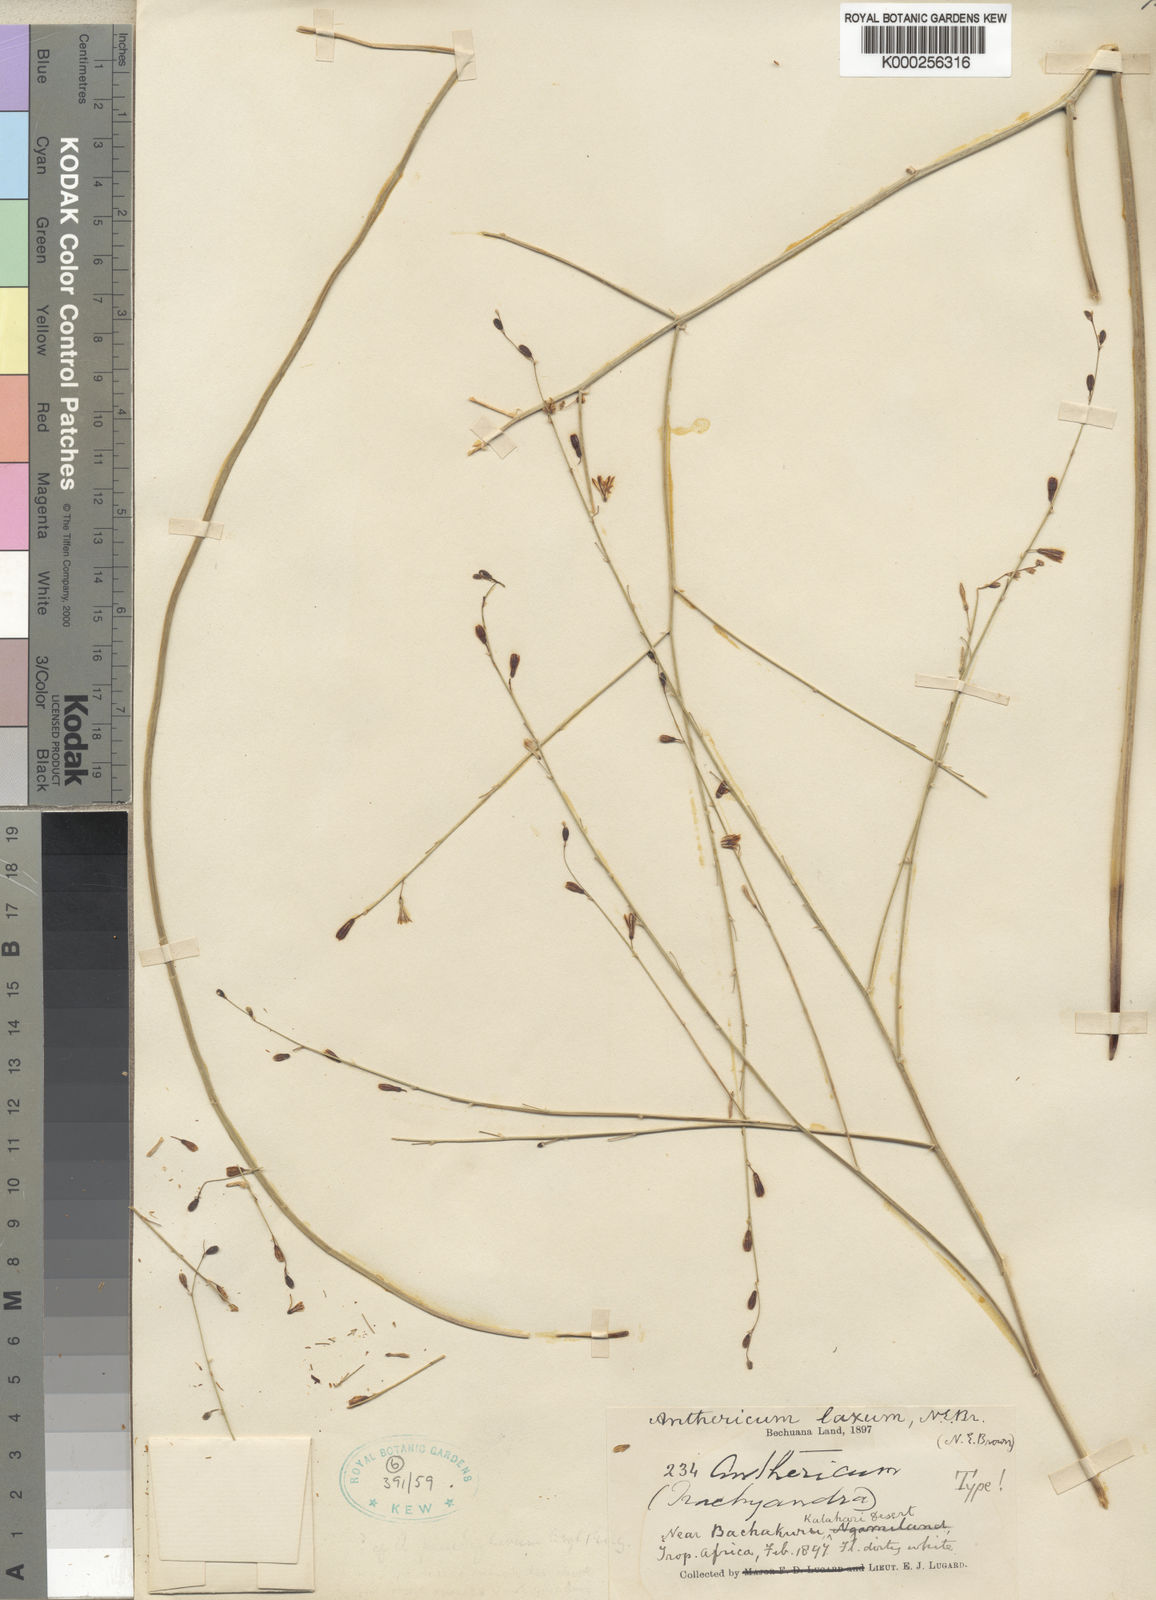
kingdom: Plantae
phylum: Tracheophyta
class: Liliopsida
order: Asparagales
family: Asphodelaceae
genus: Trachyandra
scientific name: Trachyandra laxa
